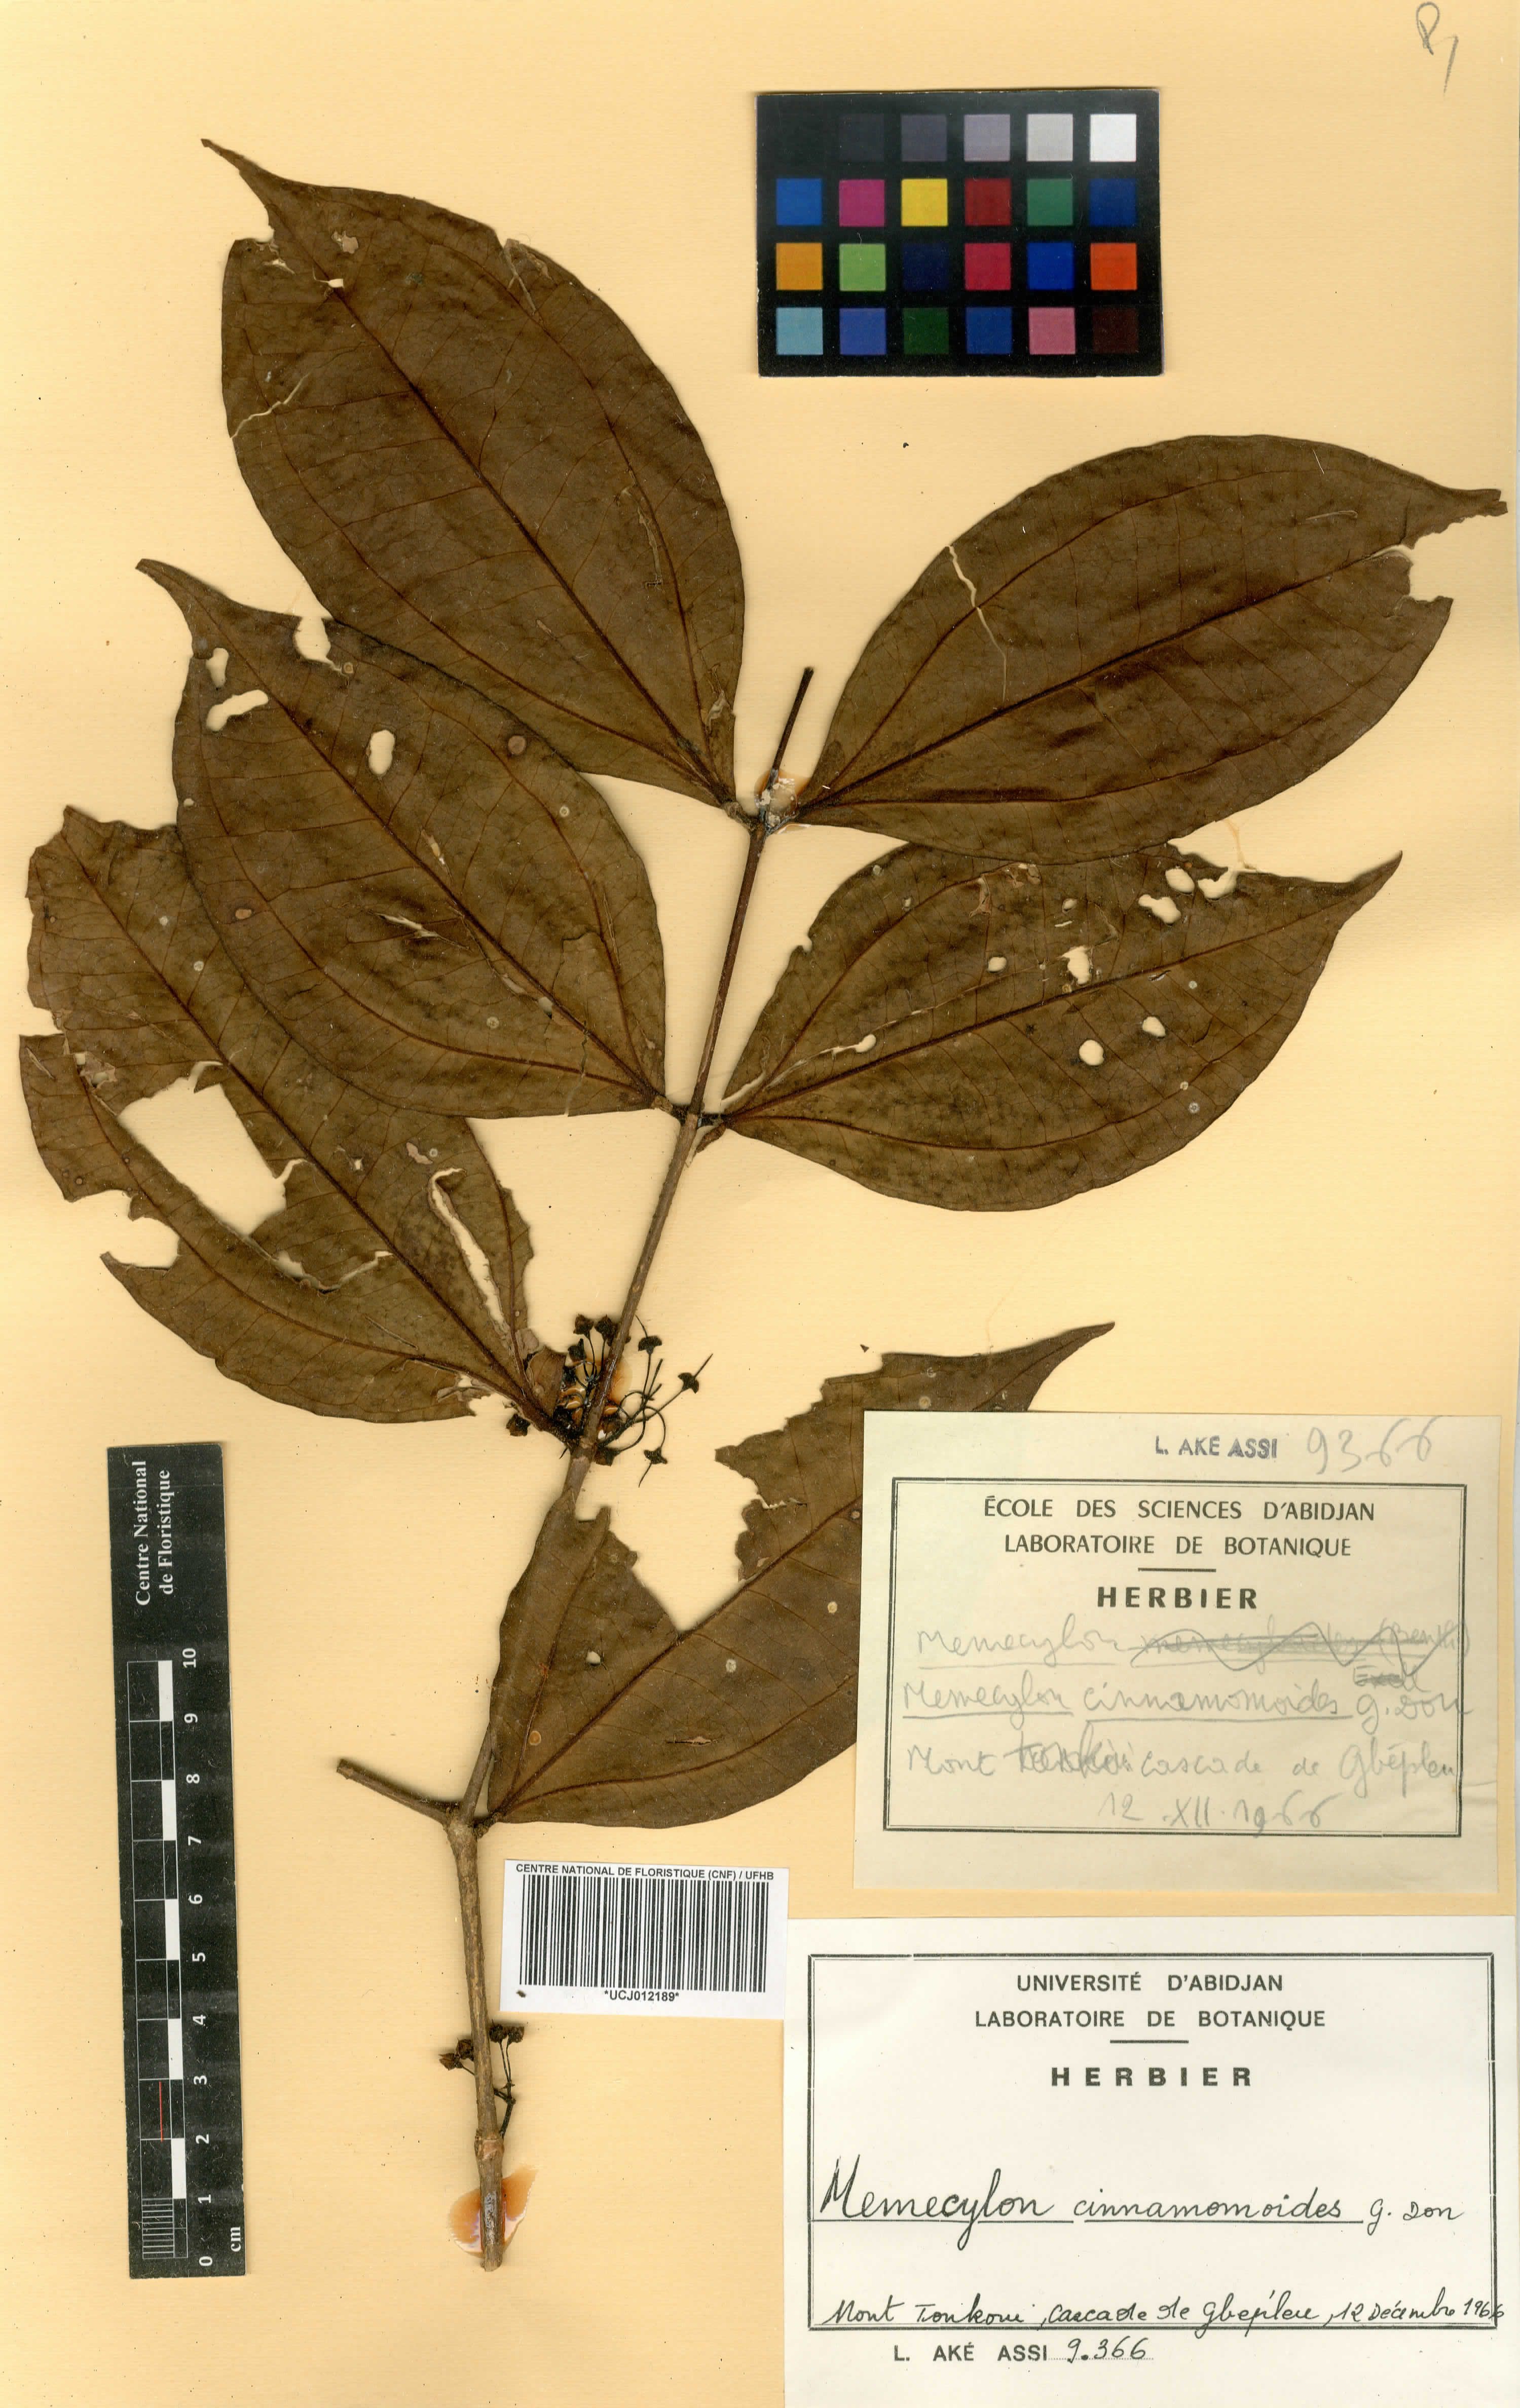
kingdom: Plantae
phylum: Tracheophyta
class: Magnoliopsida
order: Myrtales
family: Melastomataceae
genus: Warneckea
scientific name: Warneckea cinnamomoides
